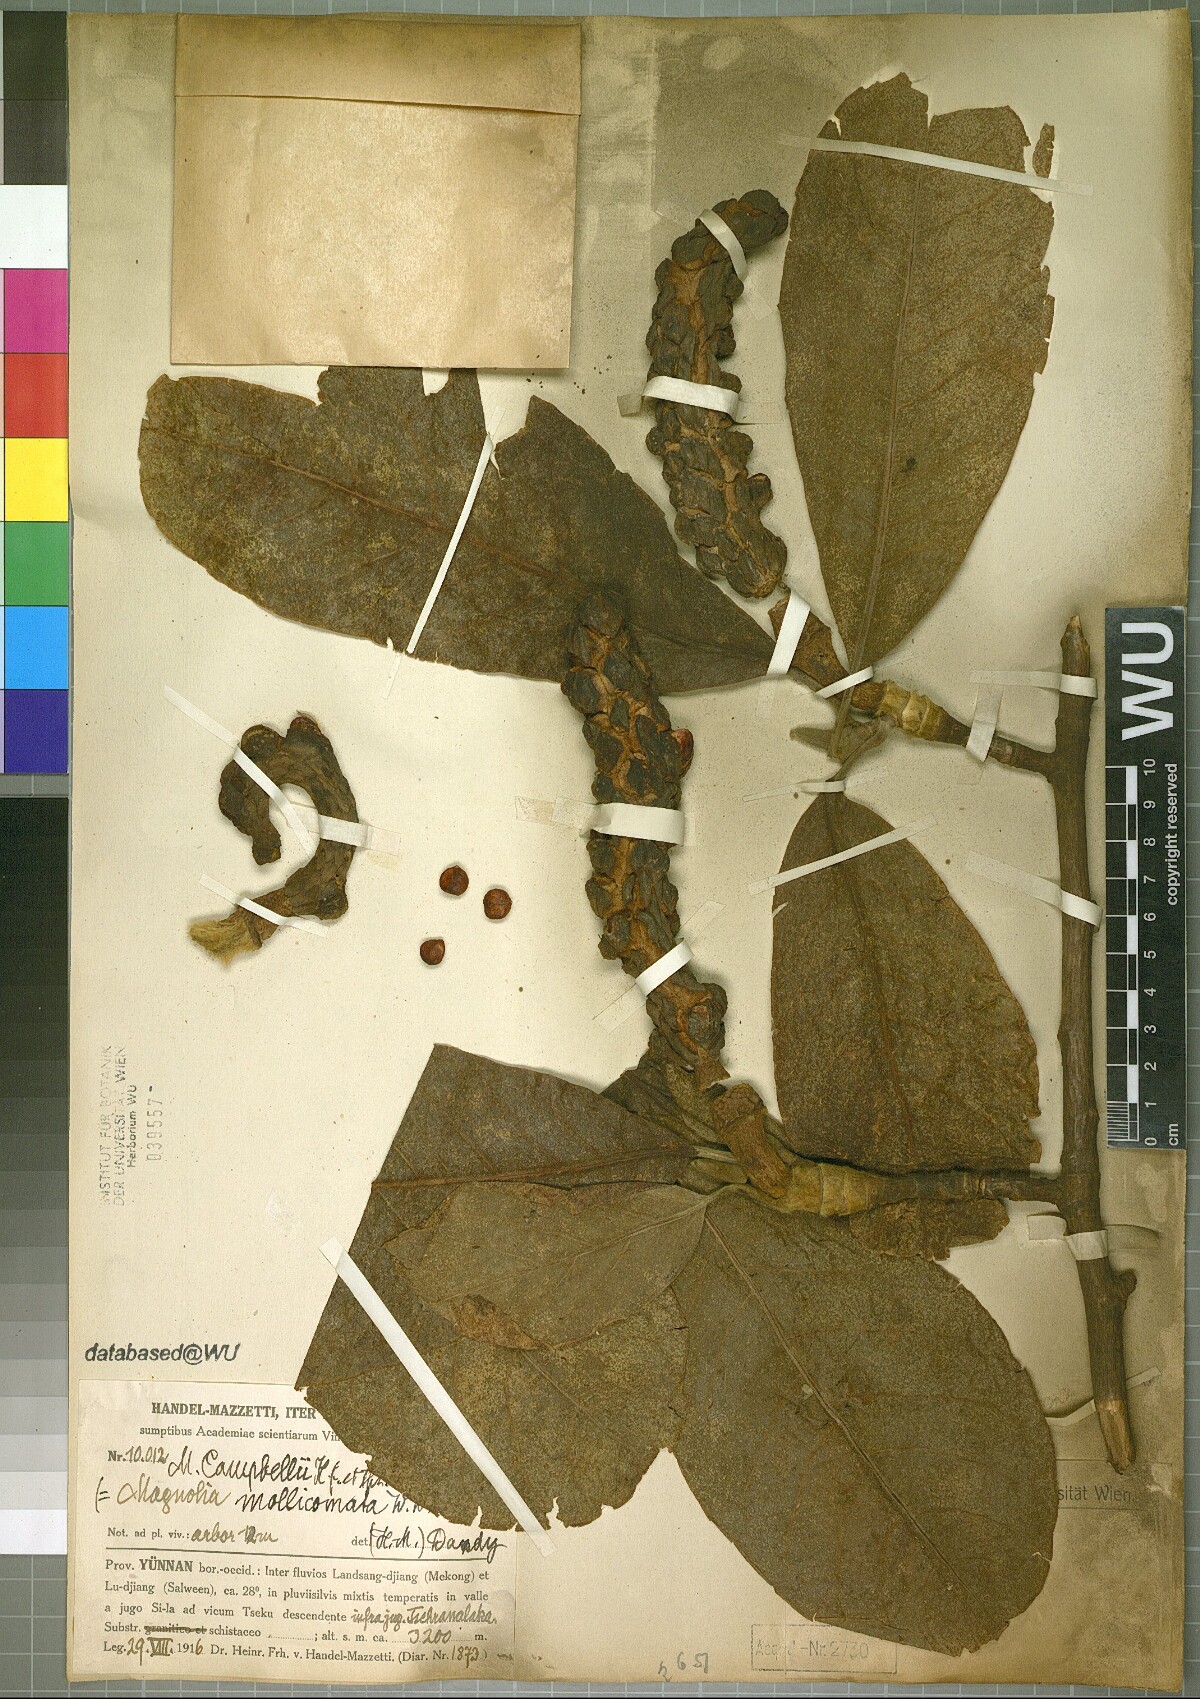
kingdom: Plantae
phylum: Tracheophyta
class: Magnoliopsida
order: Magnoliales
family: Magnoliaceae
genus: Magnolia
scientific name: Magnolia campbellii
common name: Campbell's magnolia
